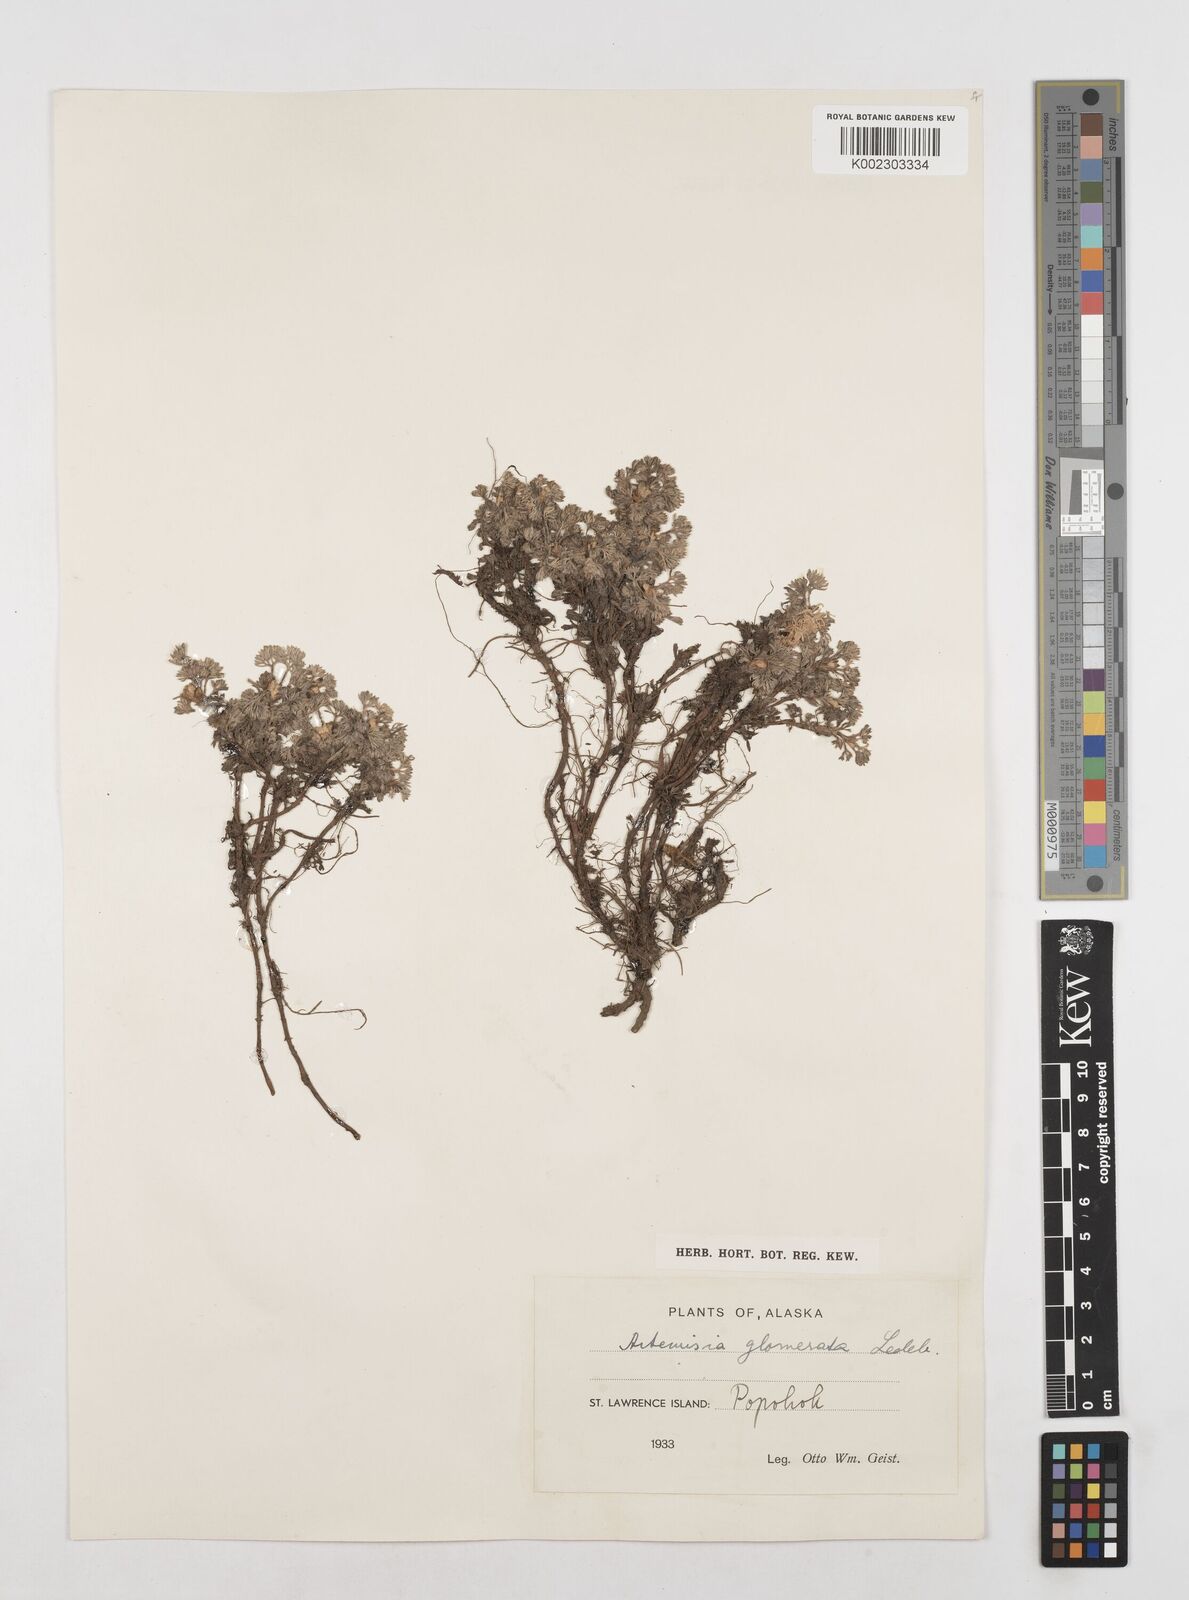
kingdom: Plantae
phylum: Tracheophyta
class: Magnoliopsida
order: Asterales
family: Asteraceae
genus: Artemisia
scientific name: Artemisia glomerata
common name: Pacific alpine wormwood
